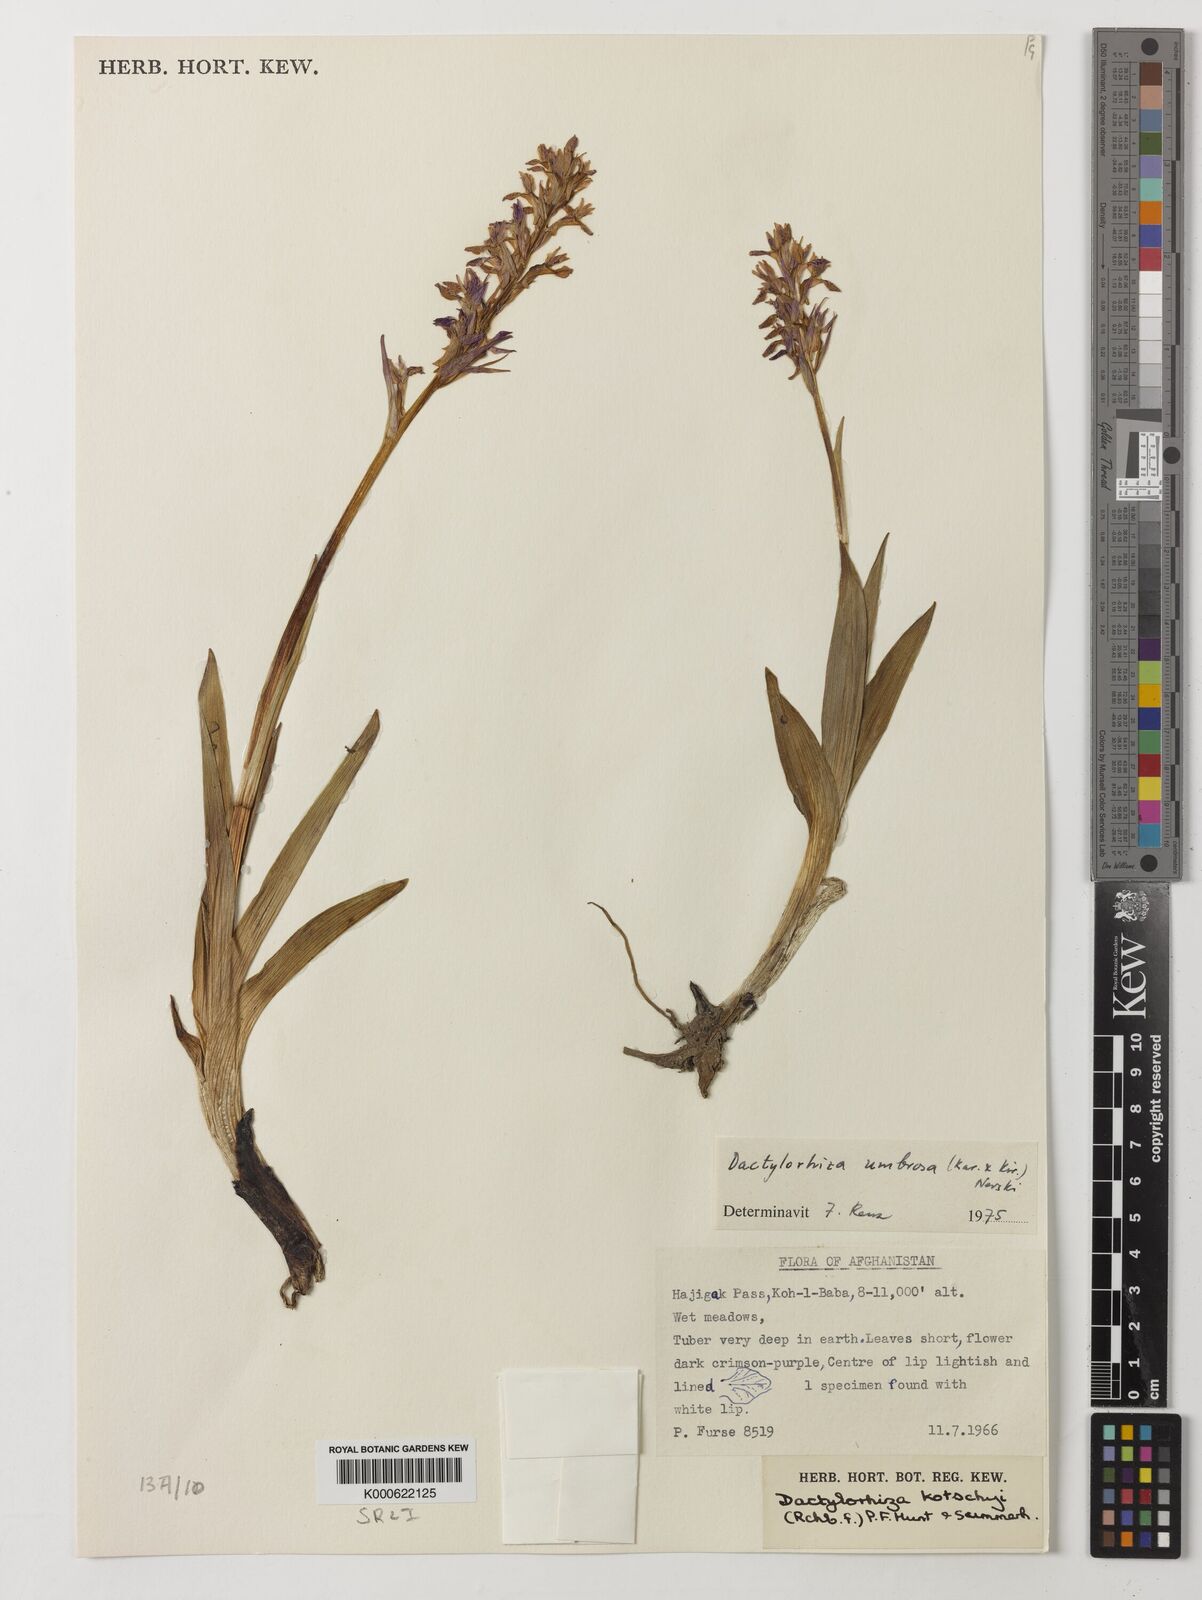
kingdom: Plantae
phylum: Tracheophyta
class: Liliopsida
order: Asparagales
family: Orchidaceae
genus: Dactylorhiza
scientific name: Dactylorhiza
